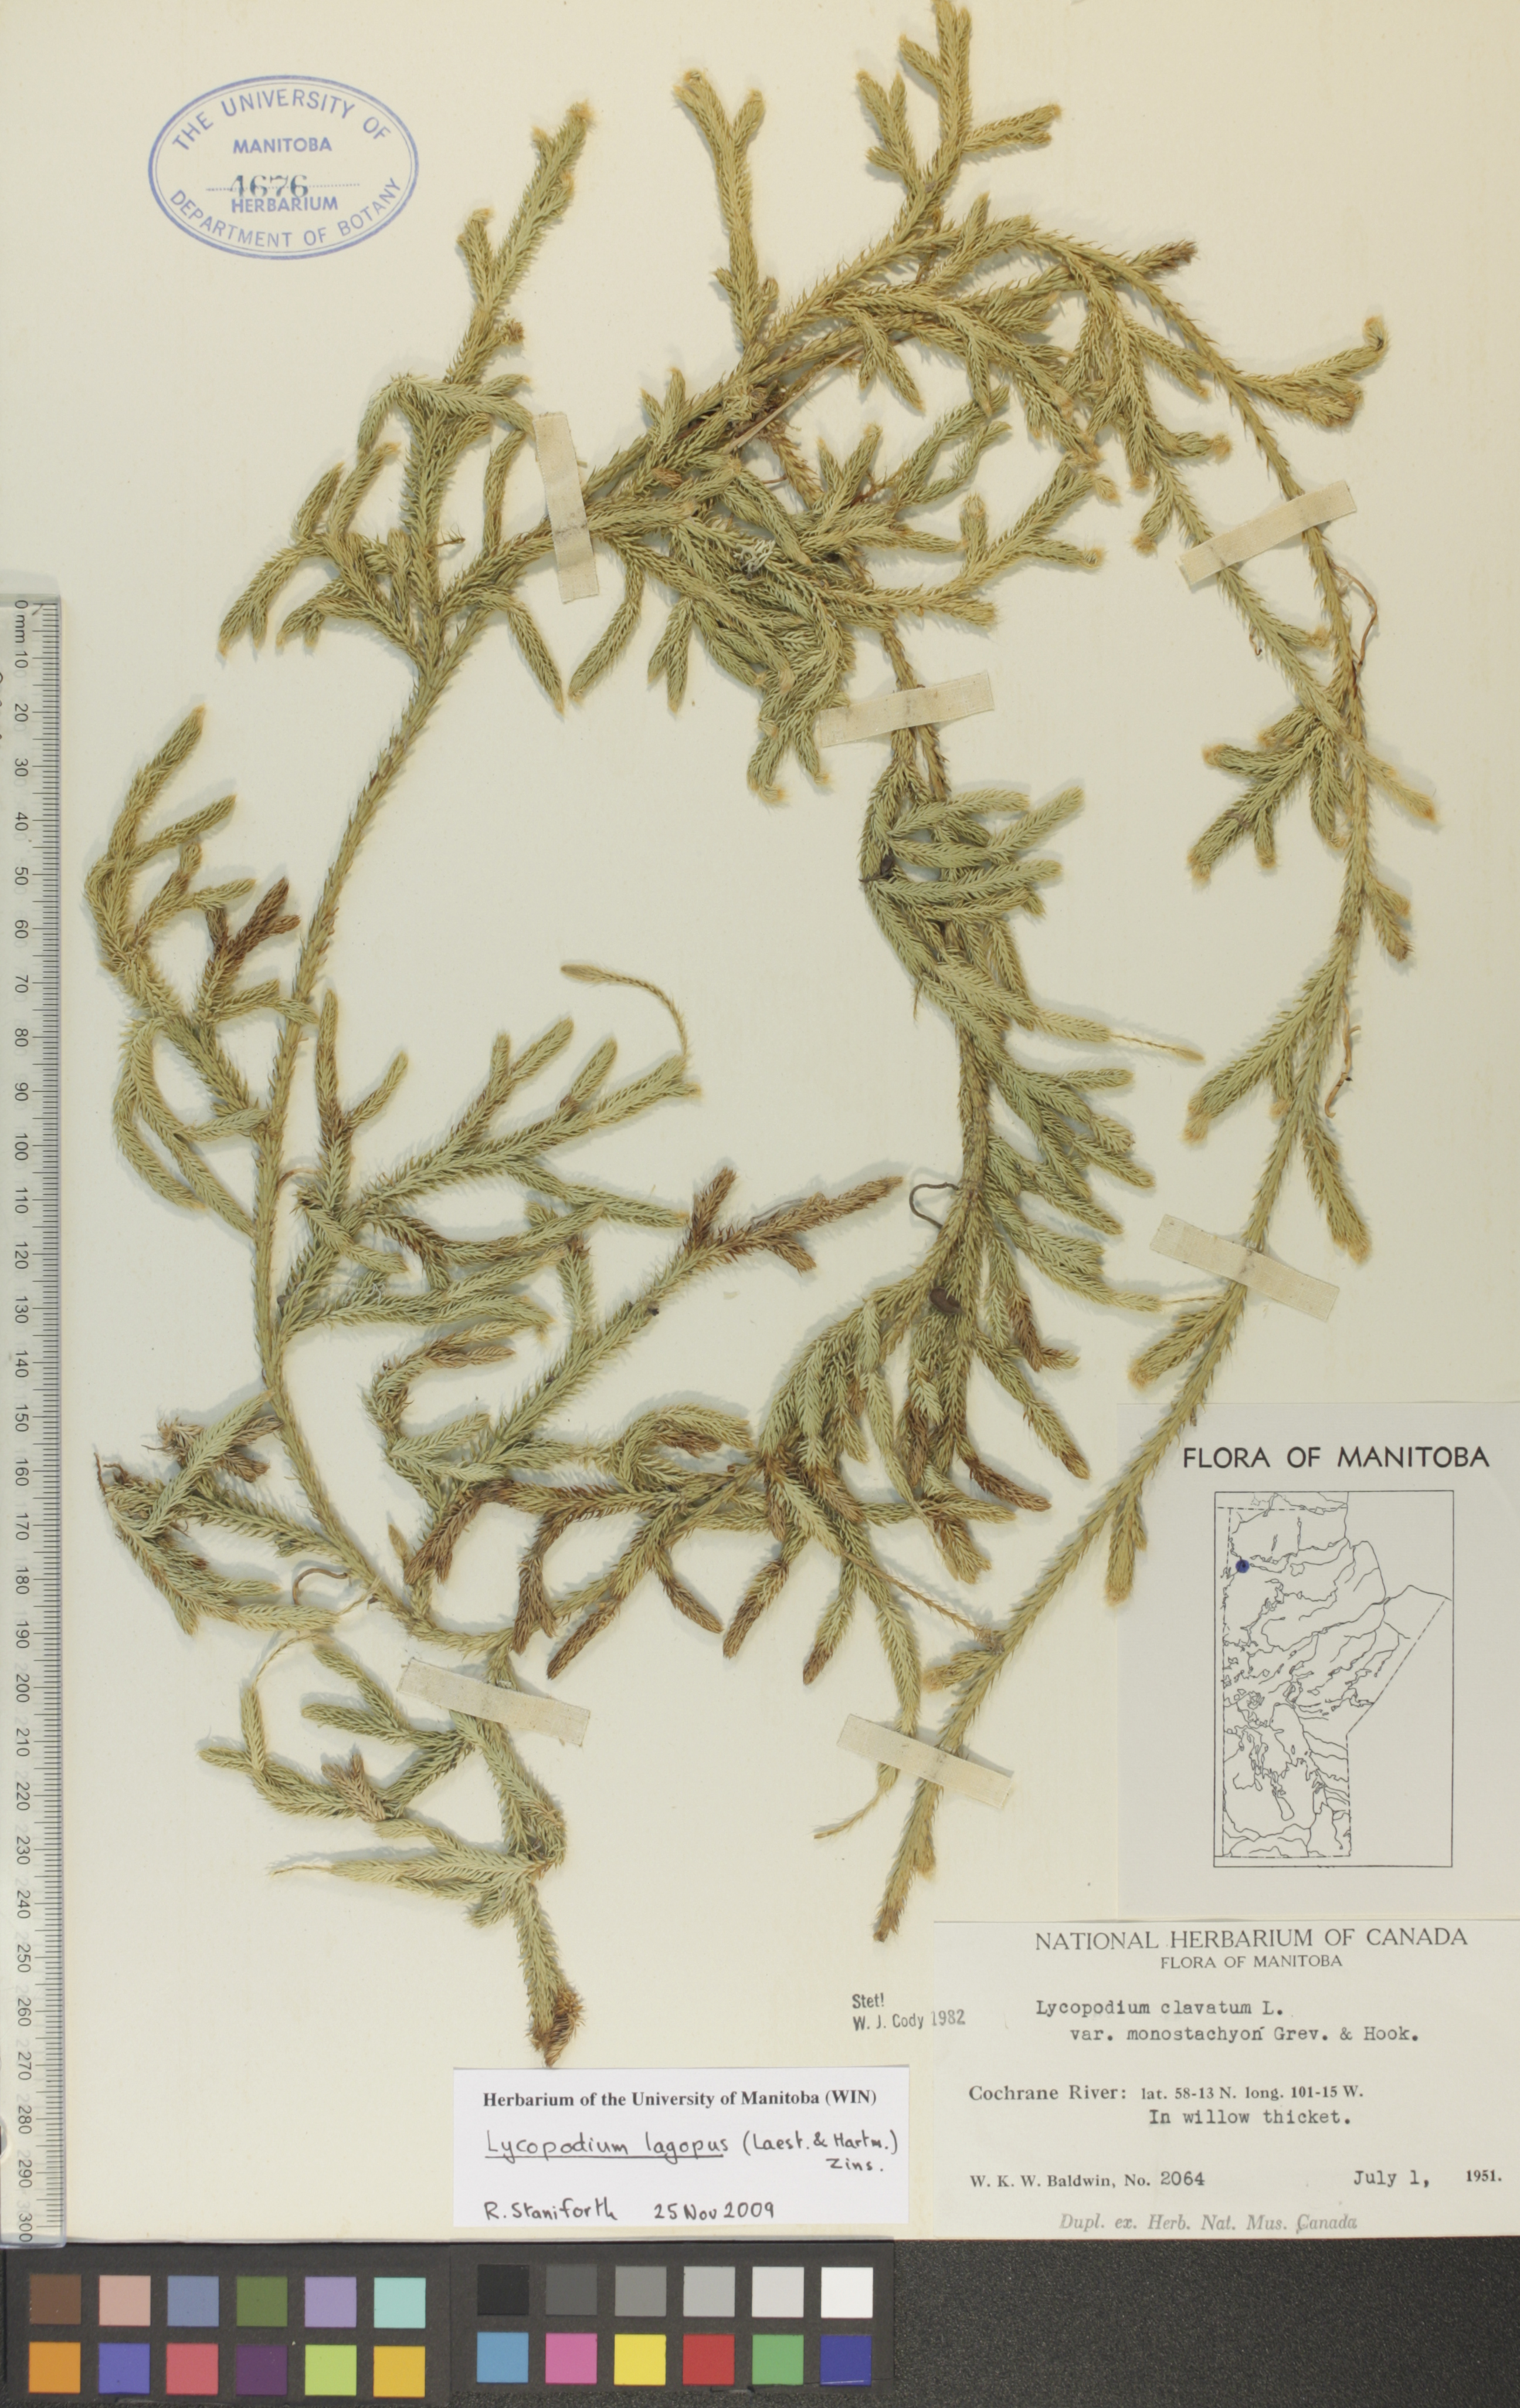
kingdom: Plantae
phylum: Tracheophyta
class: Lycopodiopsida
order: Lycopodiales
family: Lycopodiaceae
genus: Lycopodium
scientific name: Lycopodium lagopus
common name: One-cone clubmoss
